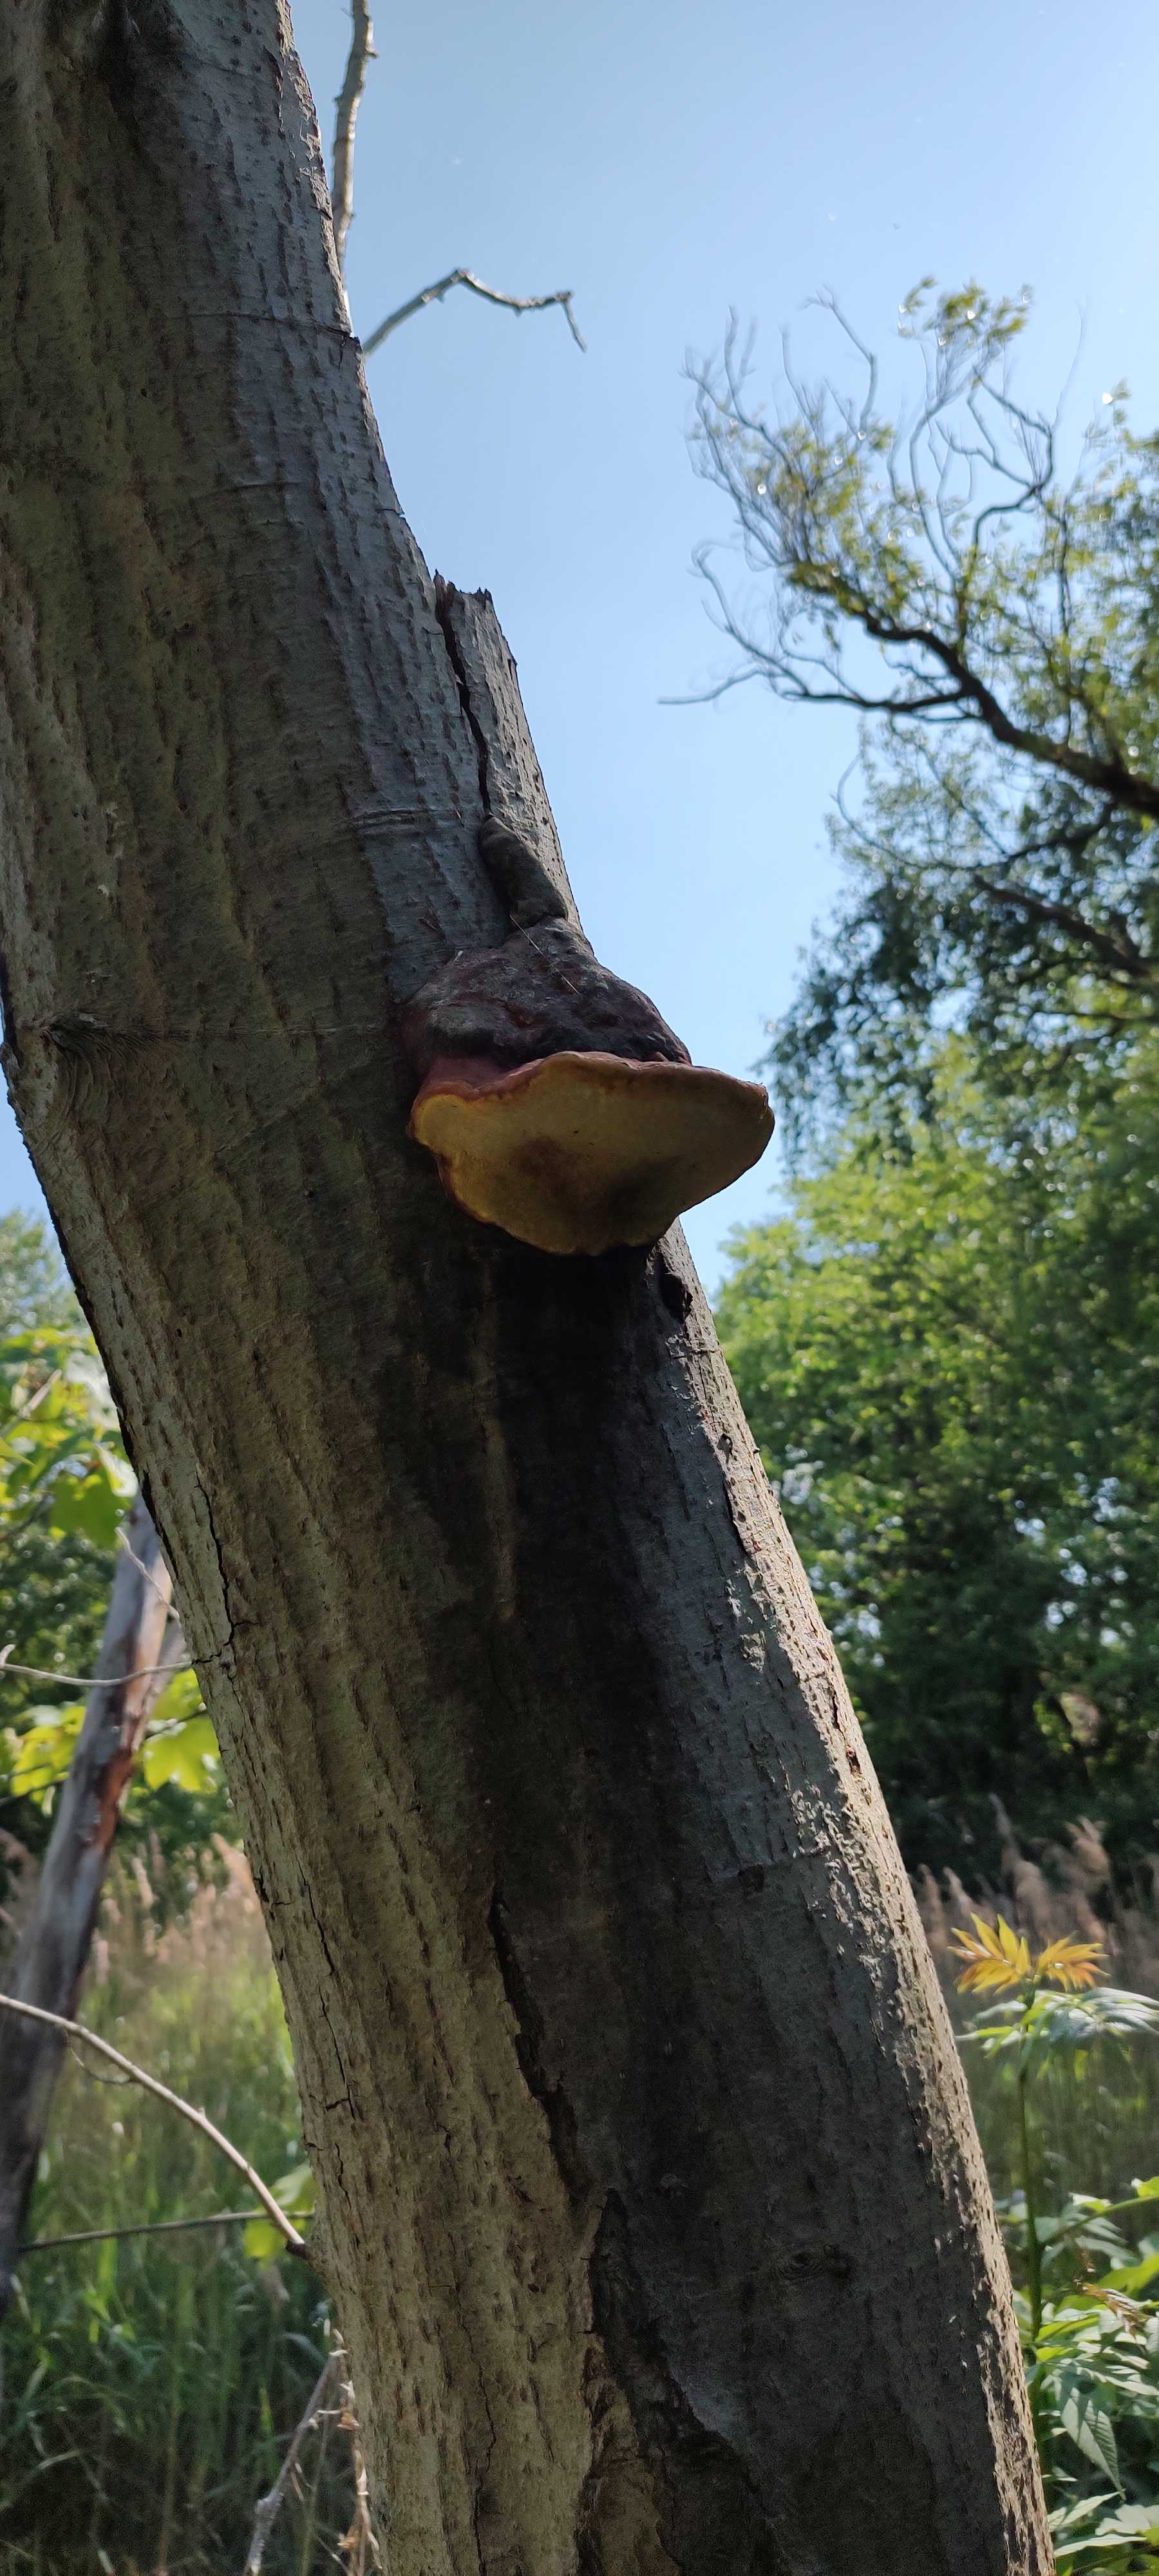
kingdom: Fungi
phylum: Basidiomycota
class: Agaricomycetes
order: Polyporales
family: Fomitopsidaceae
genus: Fomitopsis
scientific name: Fomitopsis pinicola
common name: randbæltet hovporesvamp
